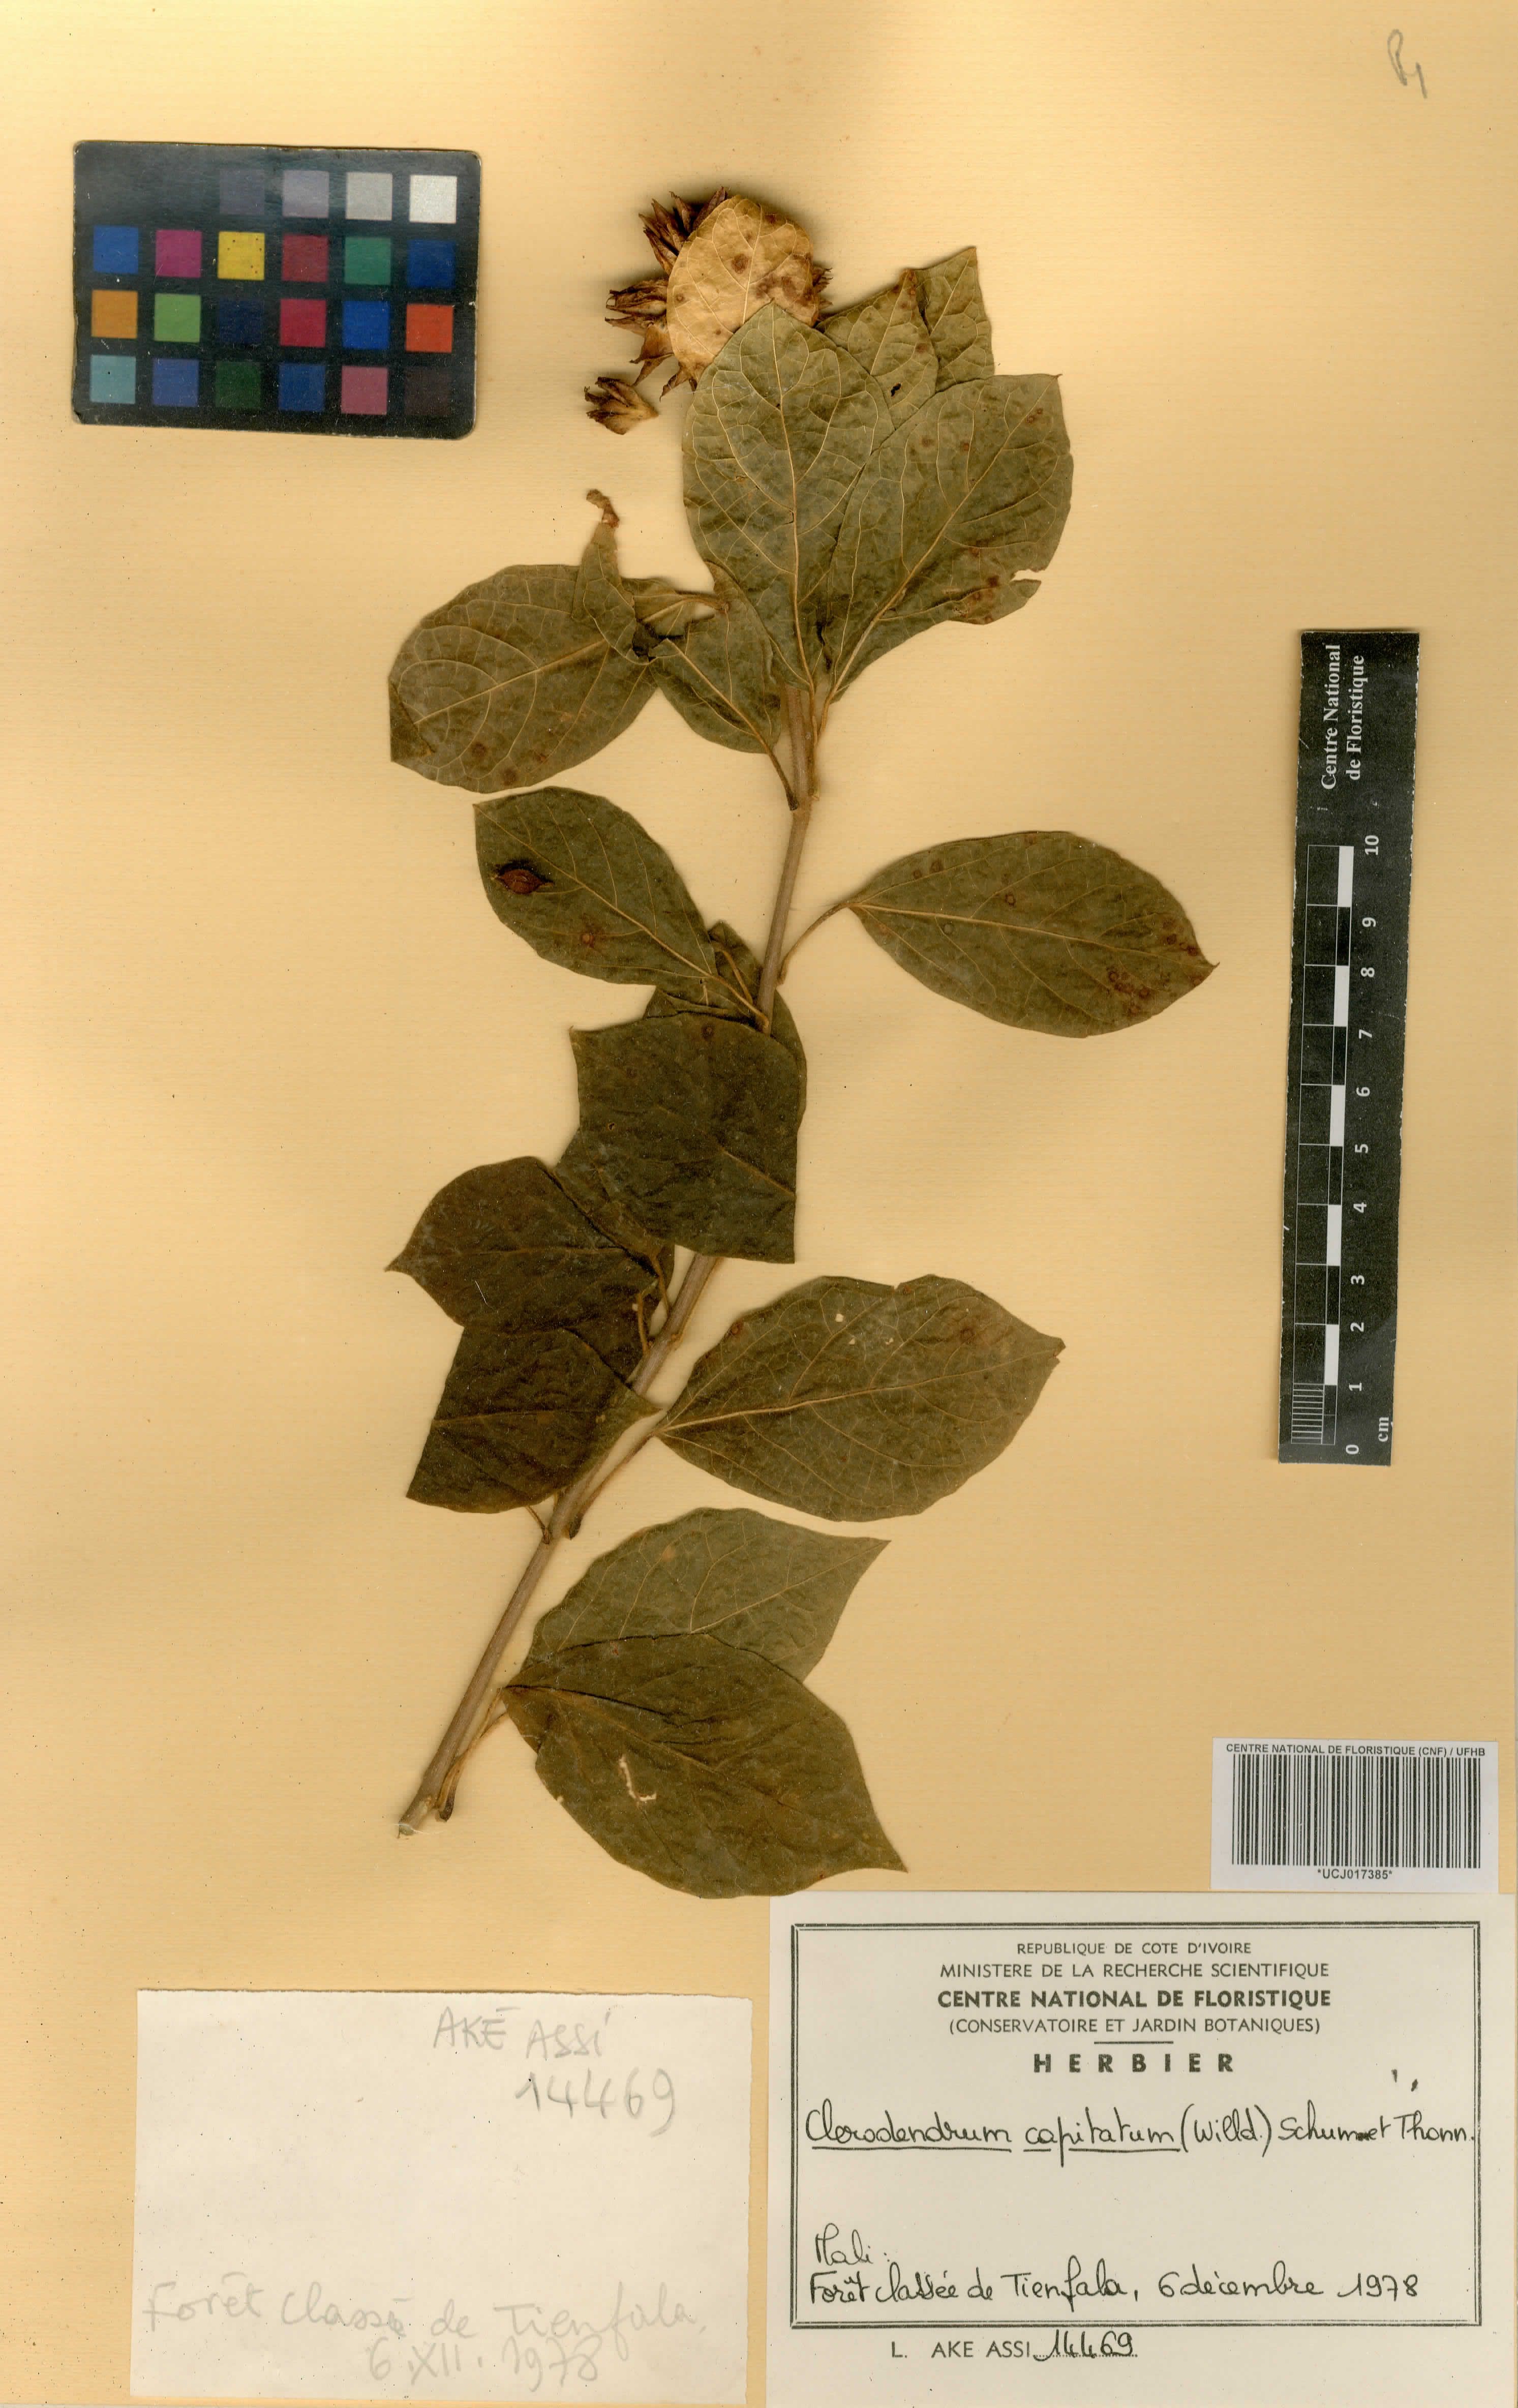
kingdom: Plantae
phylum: Tracheophyta
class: Magnoliopsida
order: Lamiales
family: Lamiaceae
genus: Clerodendrum
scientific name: Clerodendrum capitatum
